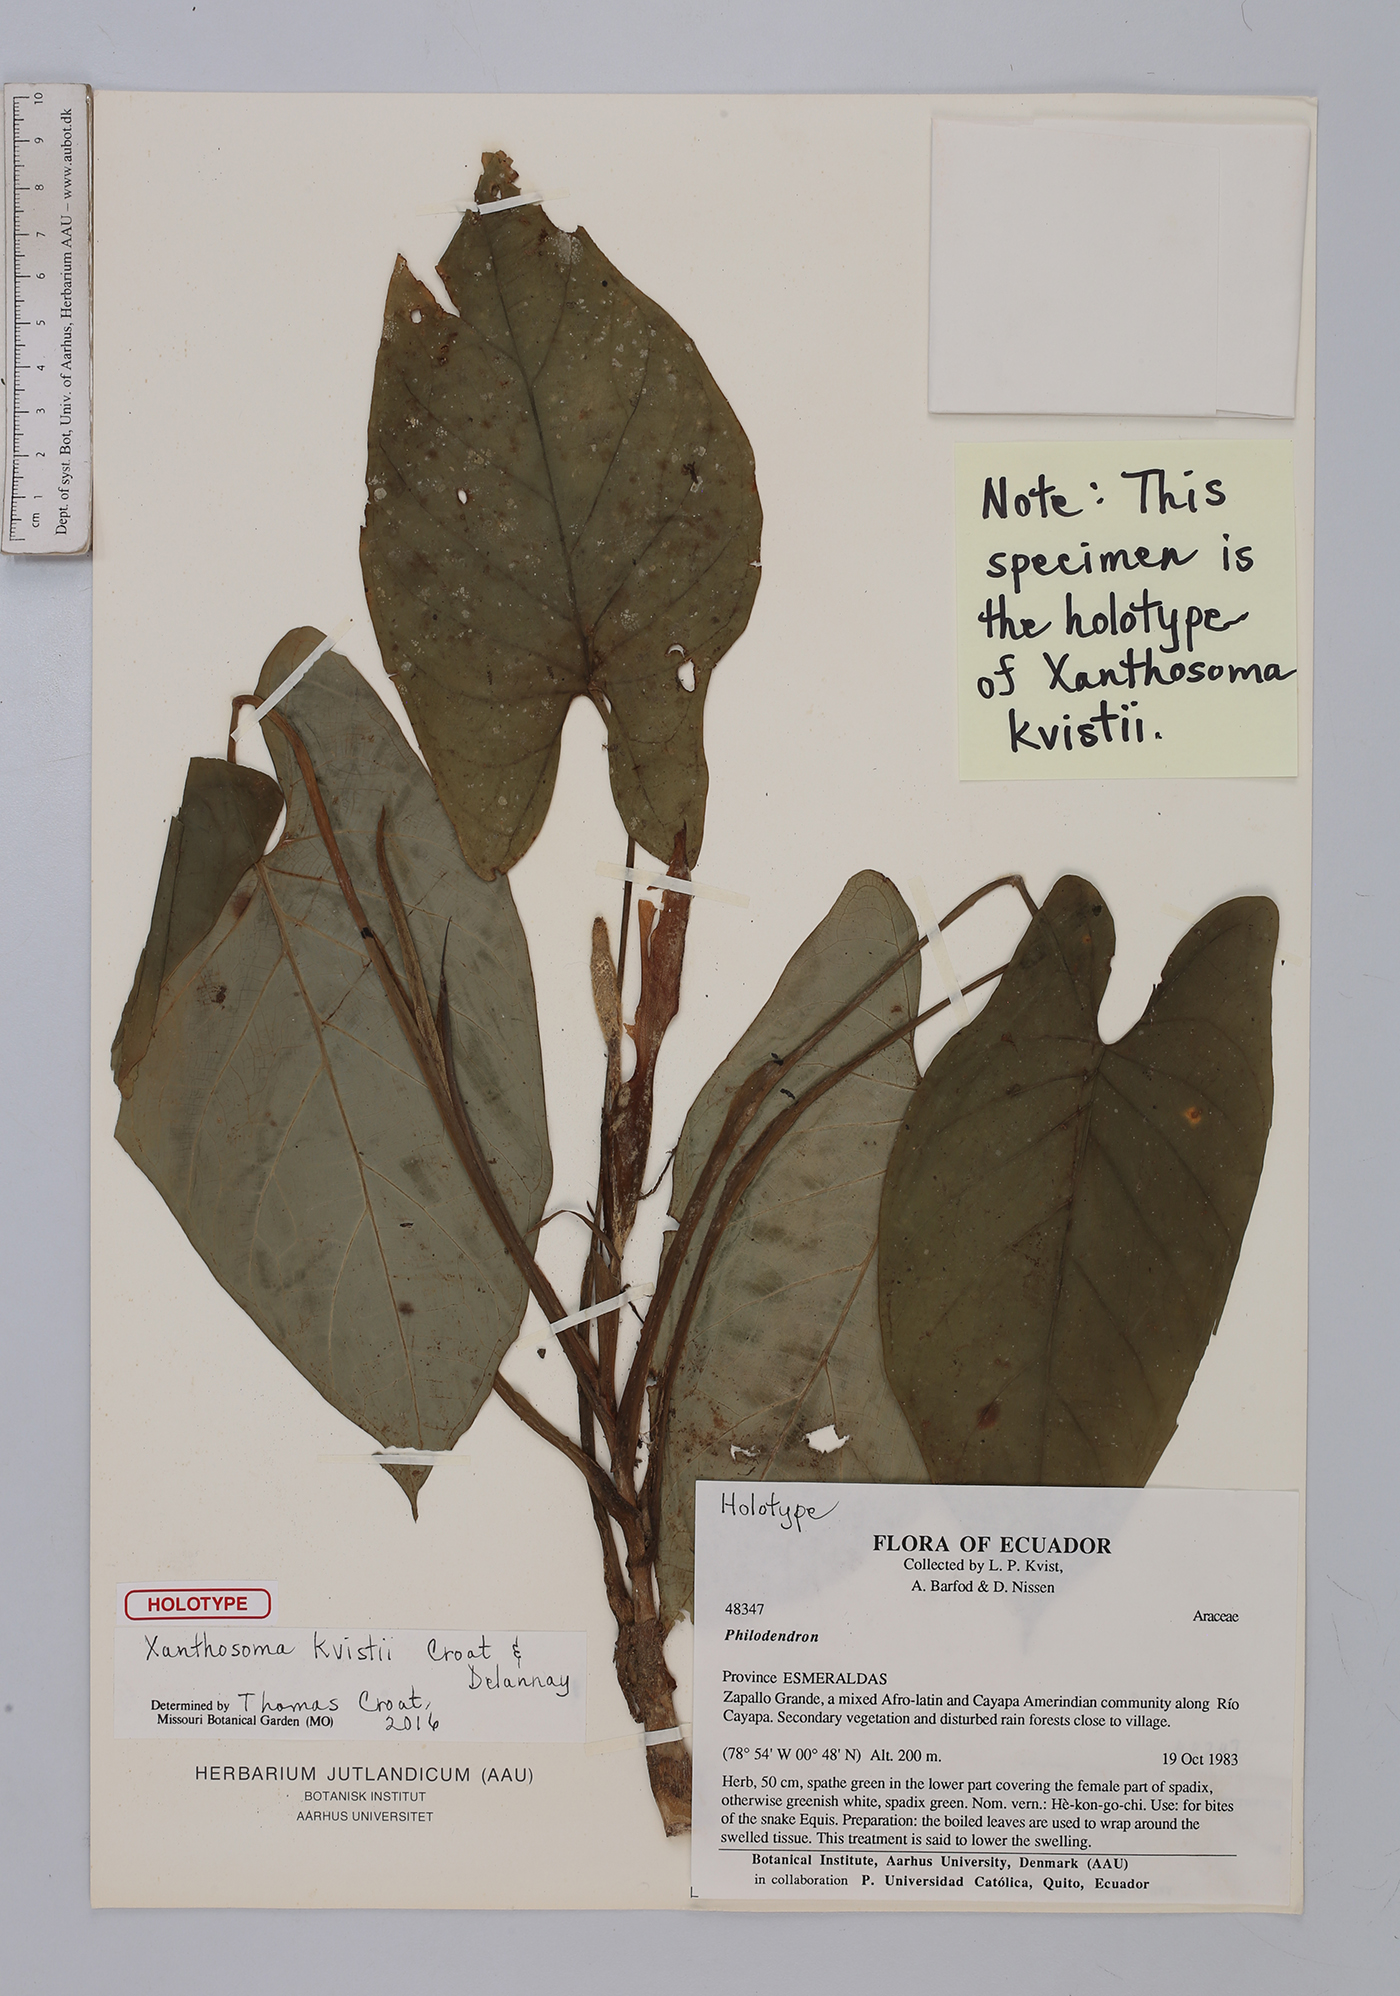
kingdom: Plantae
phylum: Tracheophyta
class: Liliopsida
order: Alismatales
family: Araceae
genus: Xanthosoma
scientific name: Xanthosoma kvistii
